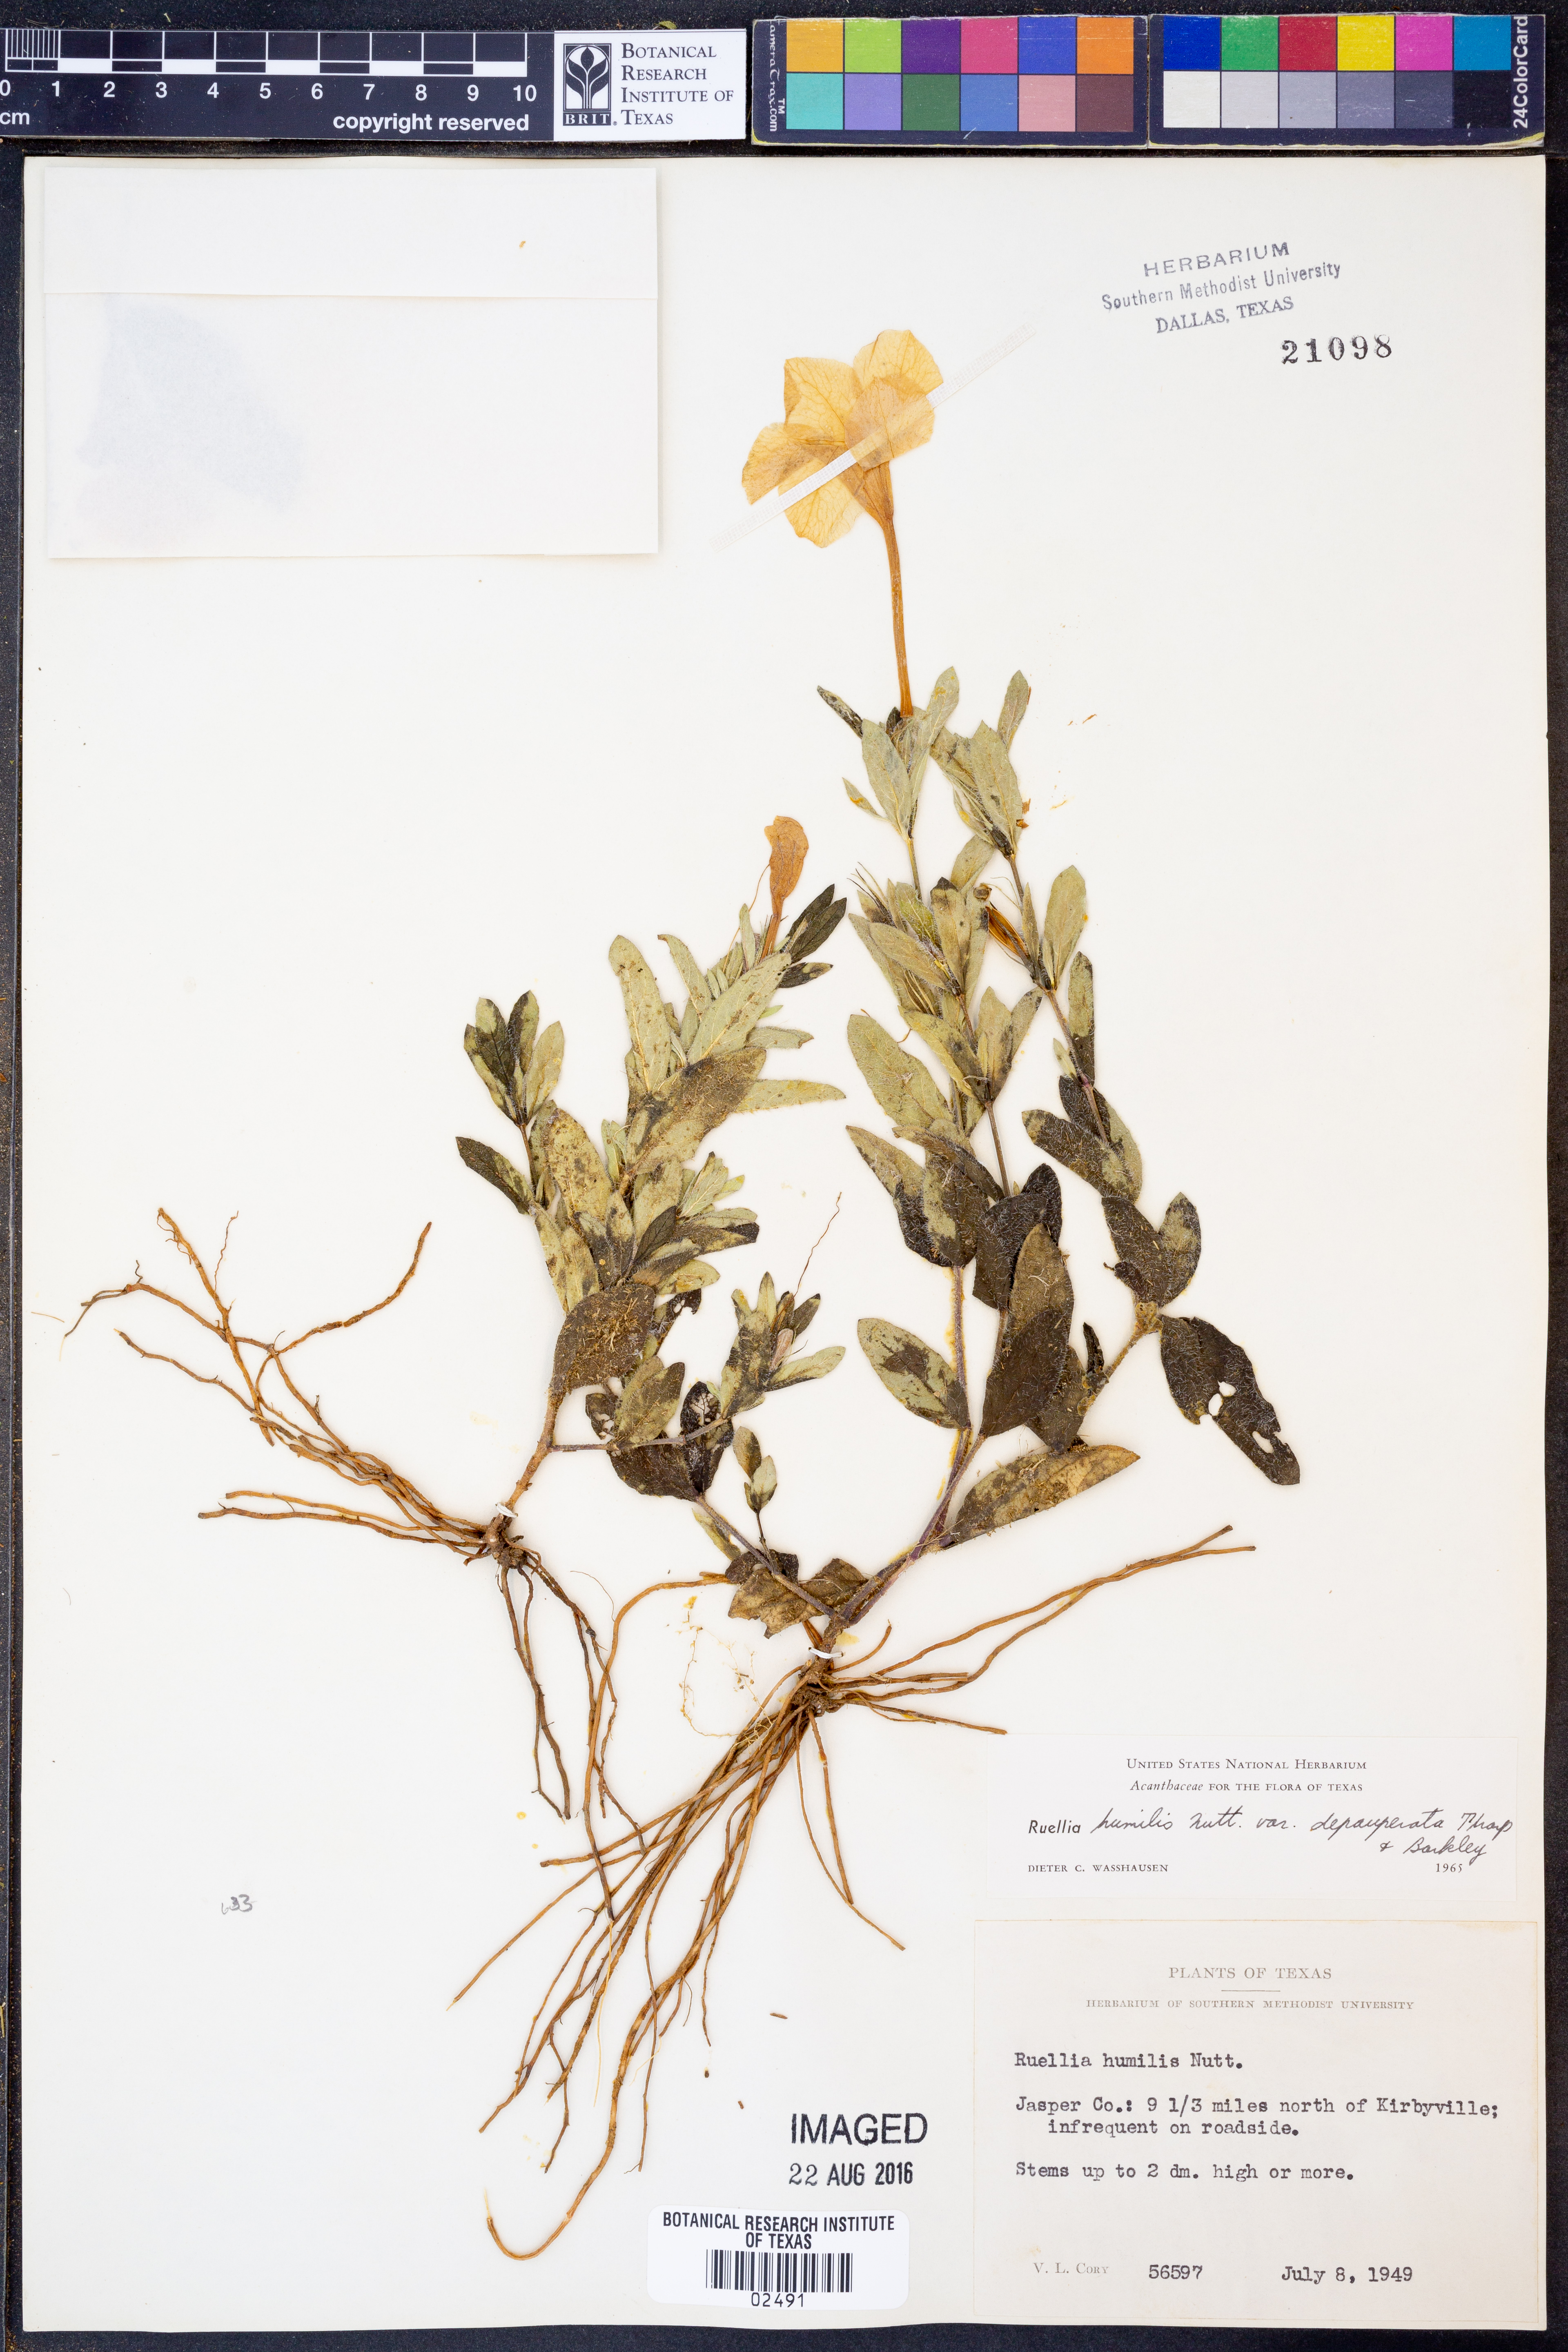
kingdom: Plantae
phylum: Tracheophyta
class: Magnoliopsida
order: Lamiales
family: Acanthaceae
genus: Ruellia
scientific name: Ruellia humilis
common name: Fringe-leaf ruellia
